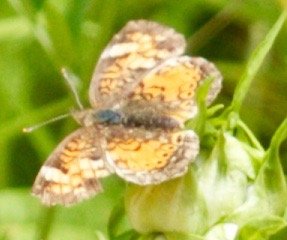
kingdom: Animalia
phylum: Arthropoda
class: Insecta
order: Lepidoptera
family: Nymphalidae
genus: Phyciodes
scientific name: Phyciodes tharos
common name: Northern Crescent
